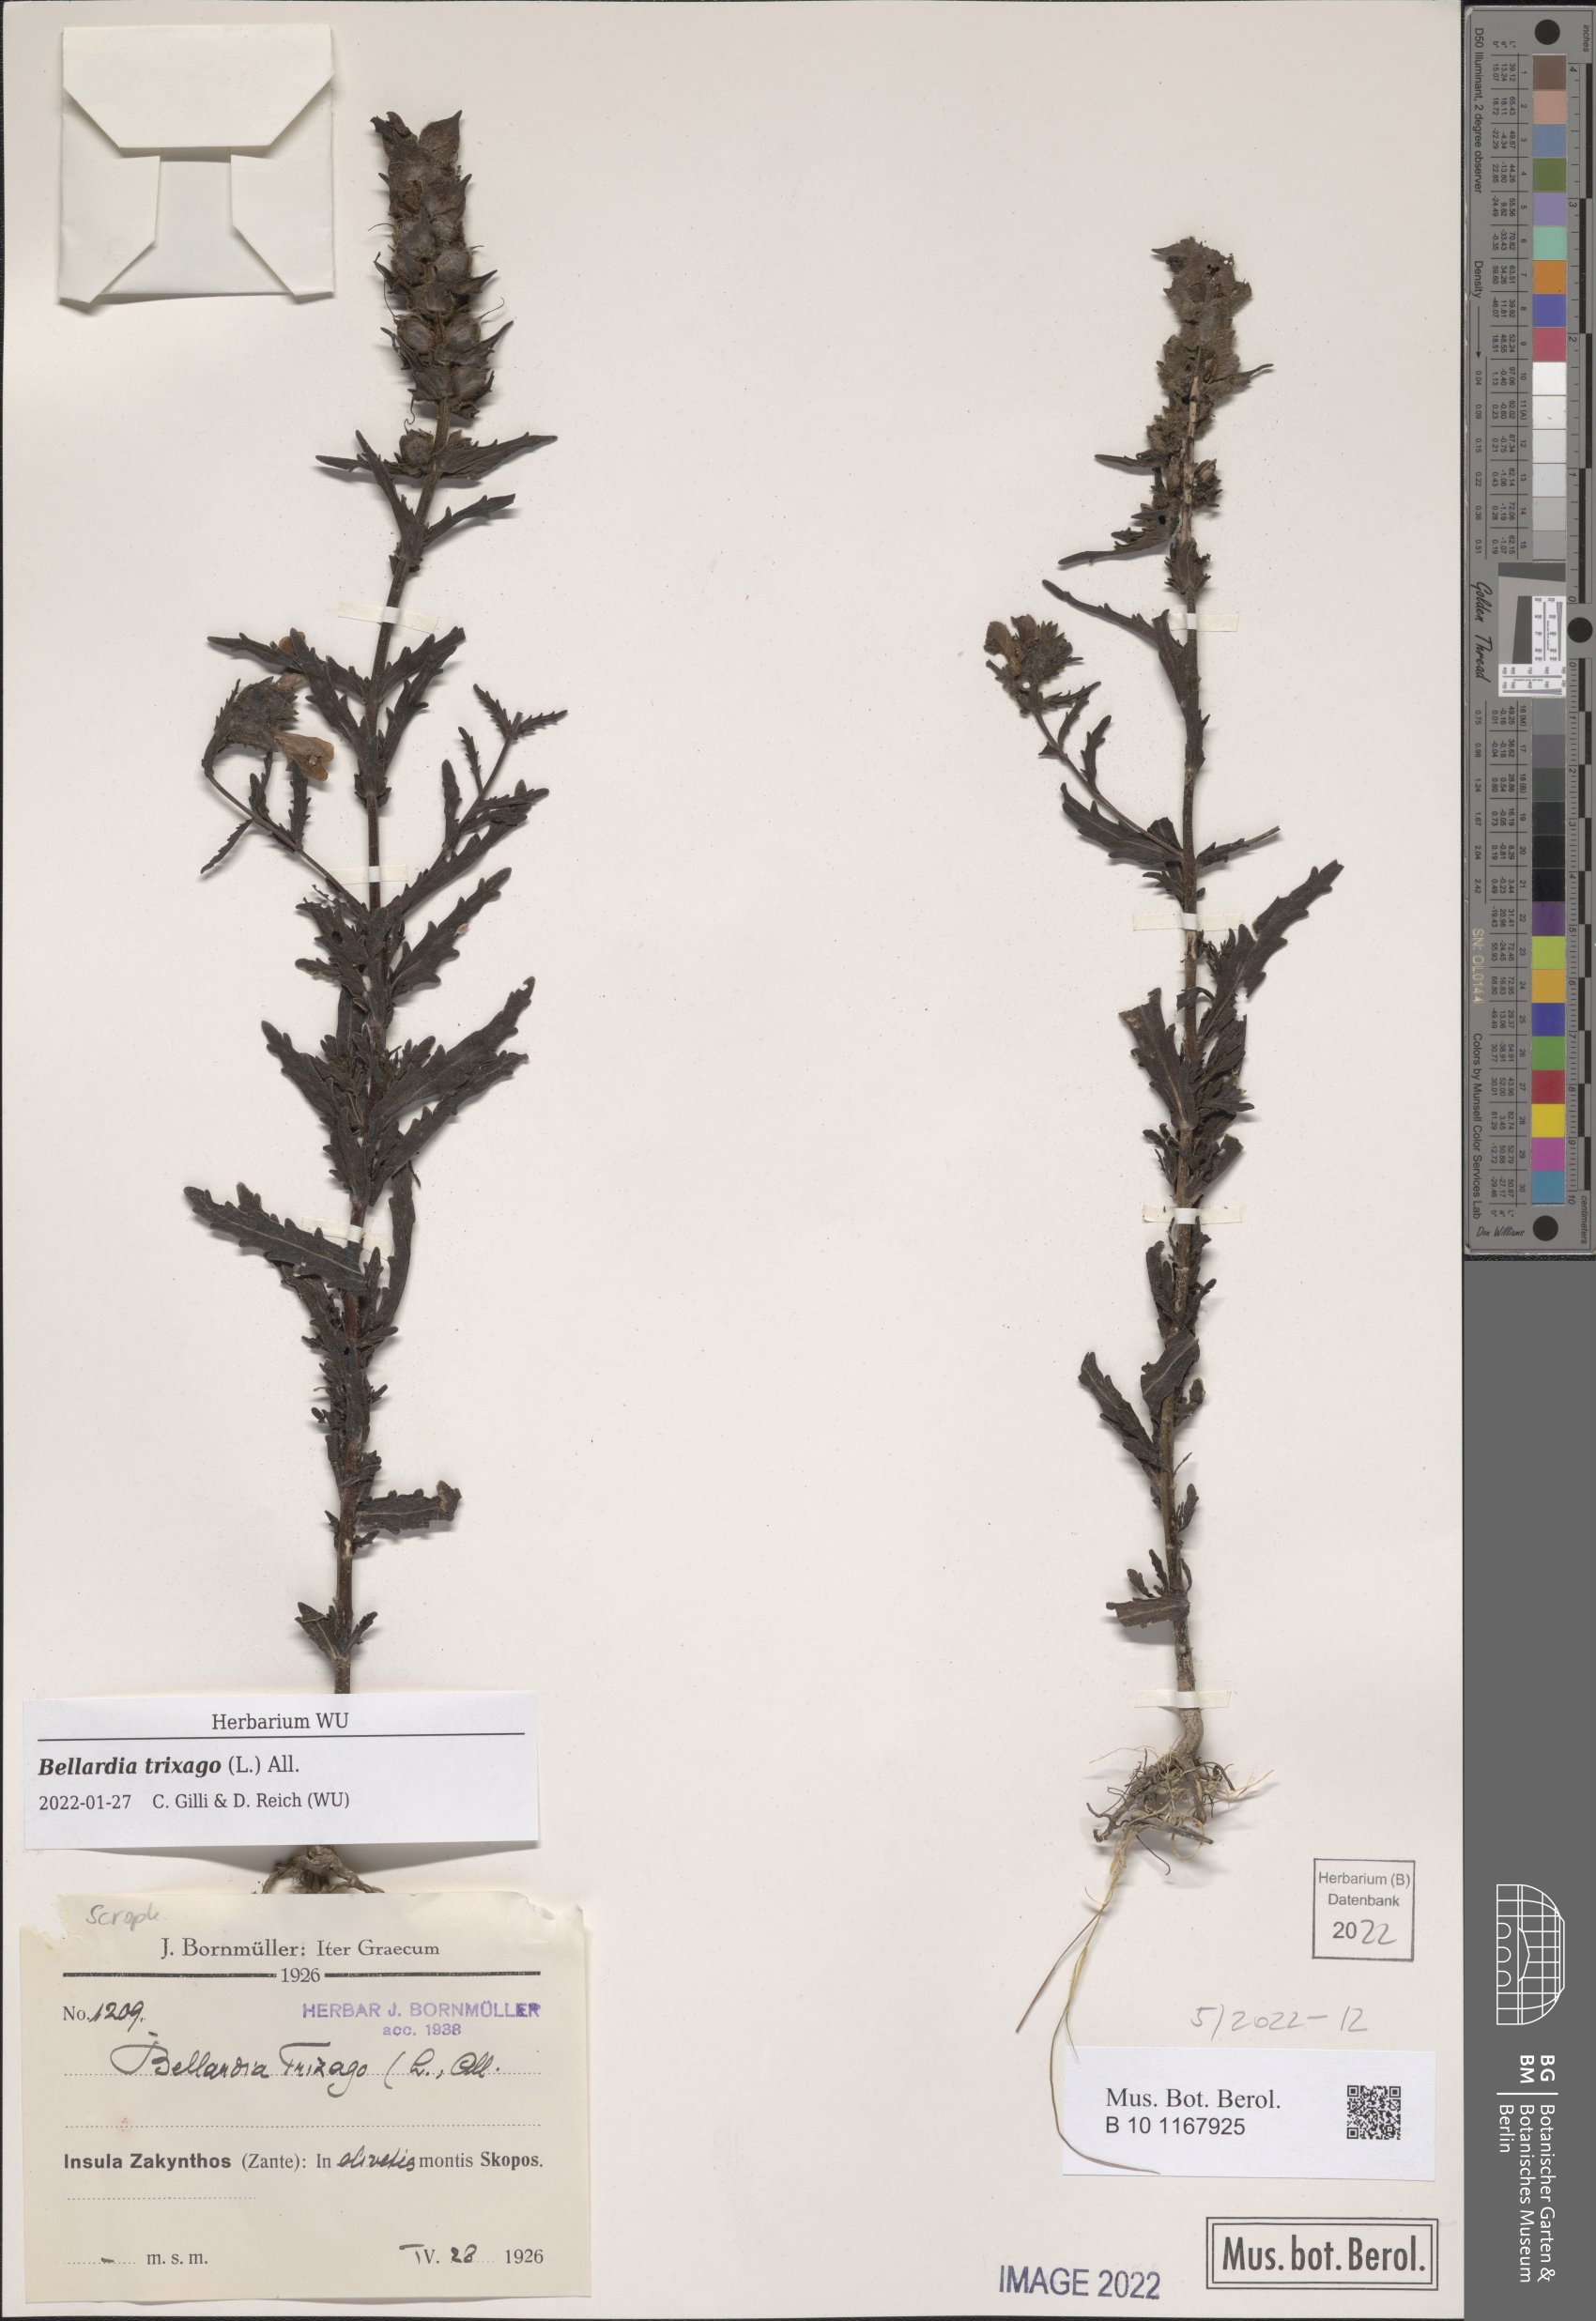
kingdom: Plantae
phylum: Tracheophyta
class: Magnoliopsida
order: Lamiales
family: Orobanchaceae
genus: Bellardia
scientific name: Bellardia trixago
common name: Mediterranean lineseed
